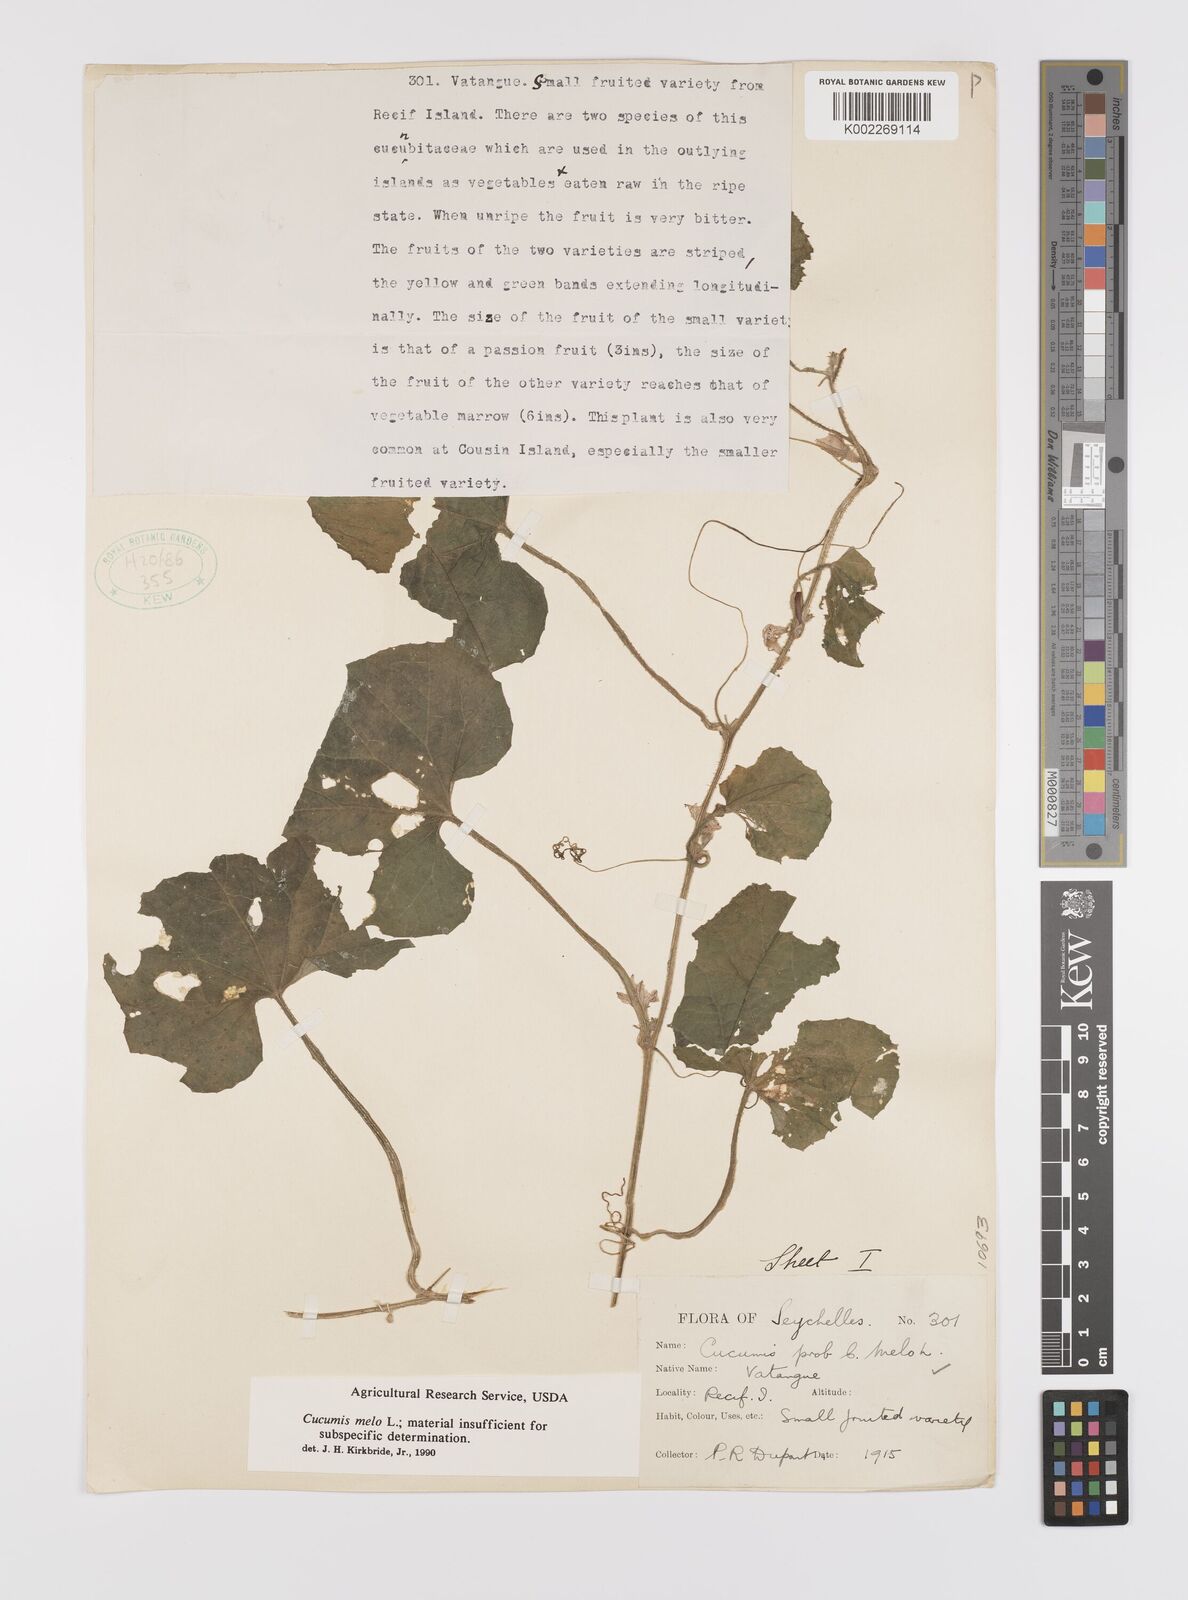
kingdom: Plantae
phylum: Tracheophyta
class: Magnoliopsida
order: Cucurbitales
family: Cucurbitaceae
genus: Cucumis
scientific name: Cucumis melo
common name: Melon
